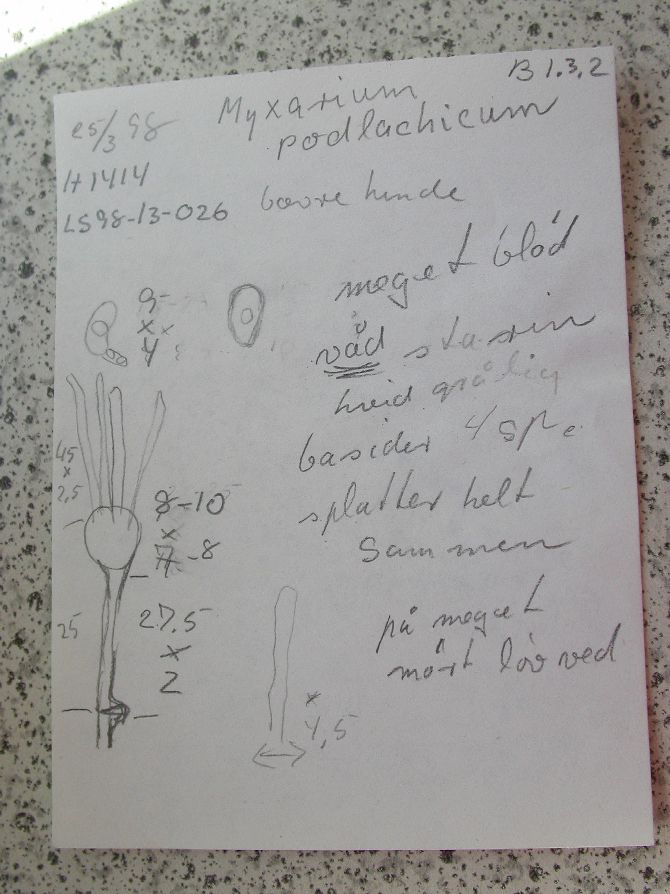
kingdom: Fungi
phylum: Basidiomycota
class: Agaricomycetes
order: Auriculariales
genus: Stypella
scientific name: Stypella grilletii
